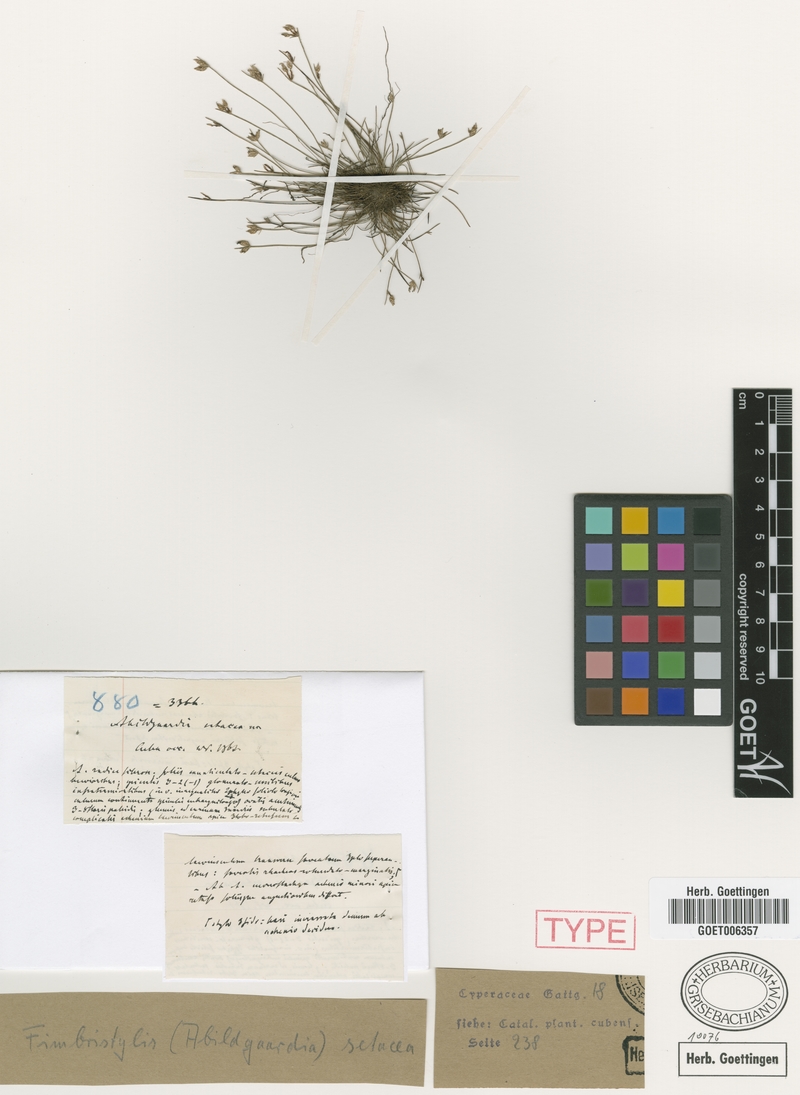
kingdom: Plantae
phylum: Tracheophyta
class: Liliopsida
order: Poales
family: Cyperaceae
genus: Bulbostylis
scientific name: Bulbostylis setacea
